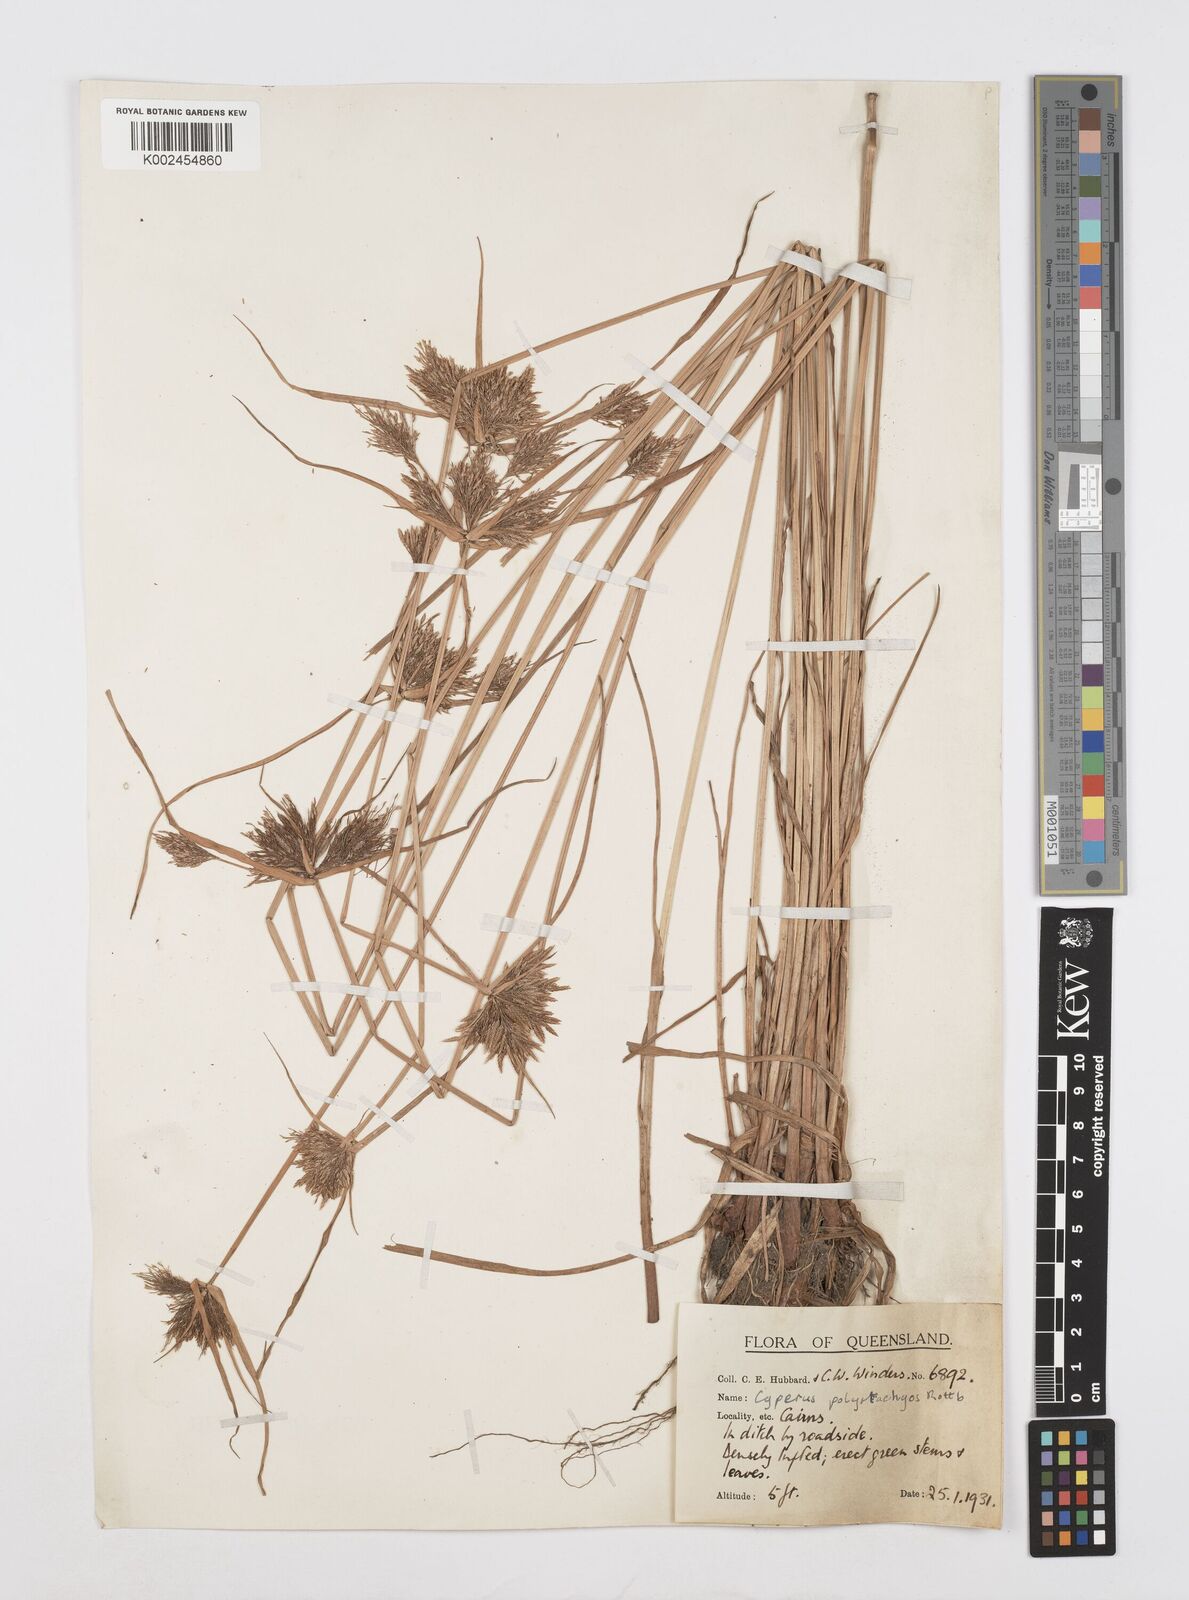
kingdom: Plantae
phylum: Tracheophyta
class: Liliopsida
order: Poales
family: Cyperaceae
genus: Cyperus
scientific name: Cyperus polystachyos
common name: Bunchy flat sedge
